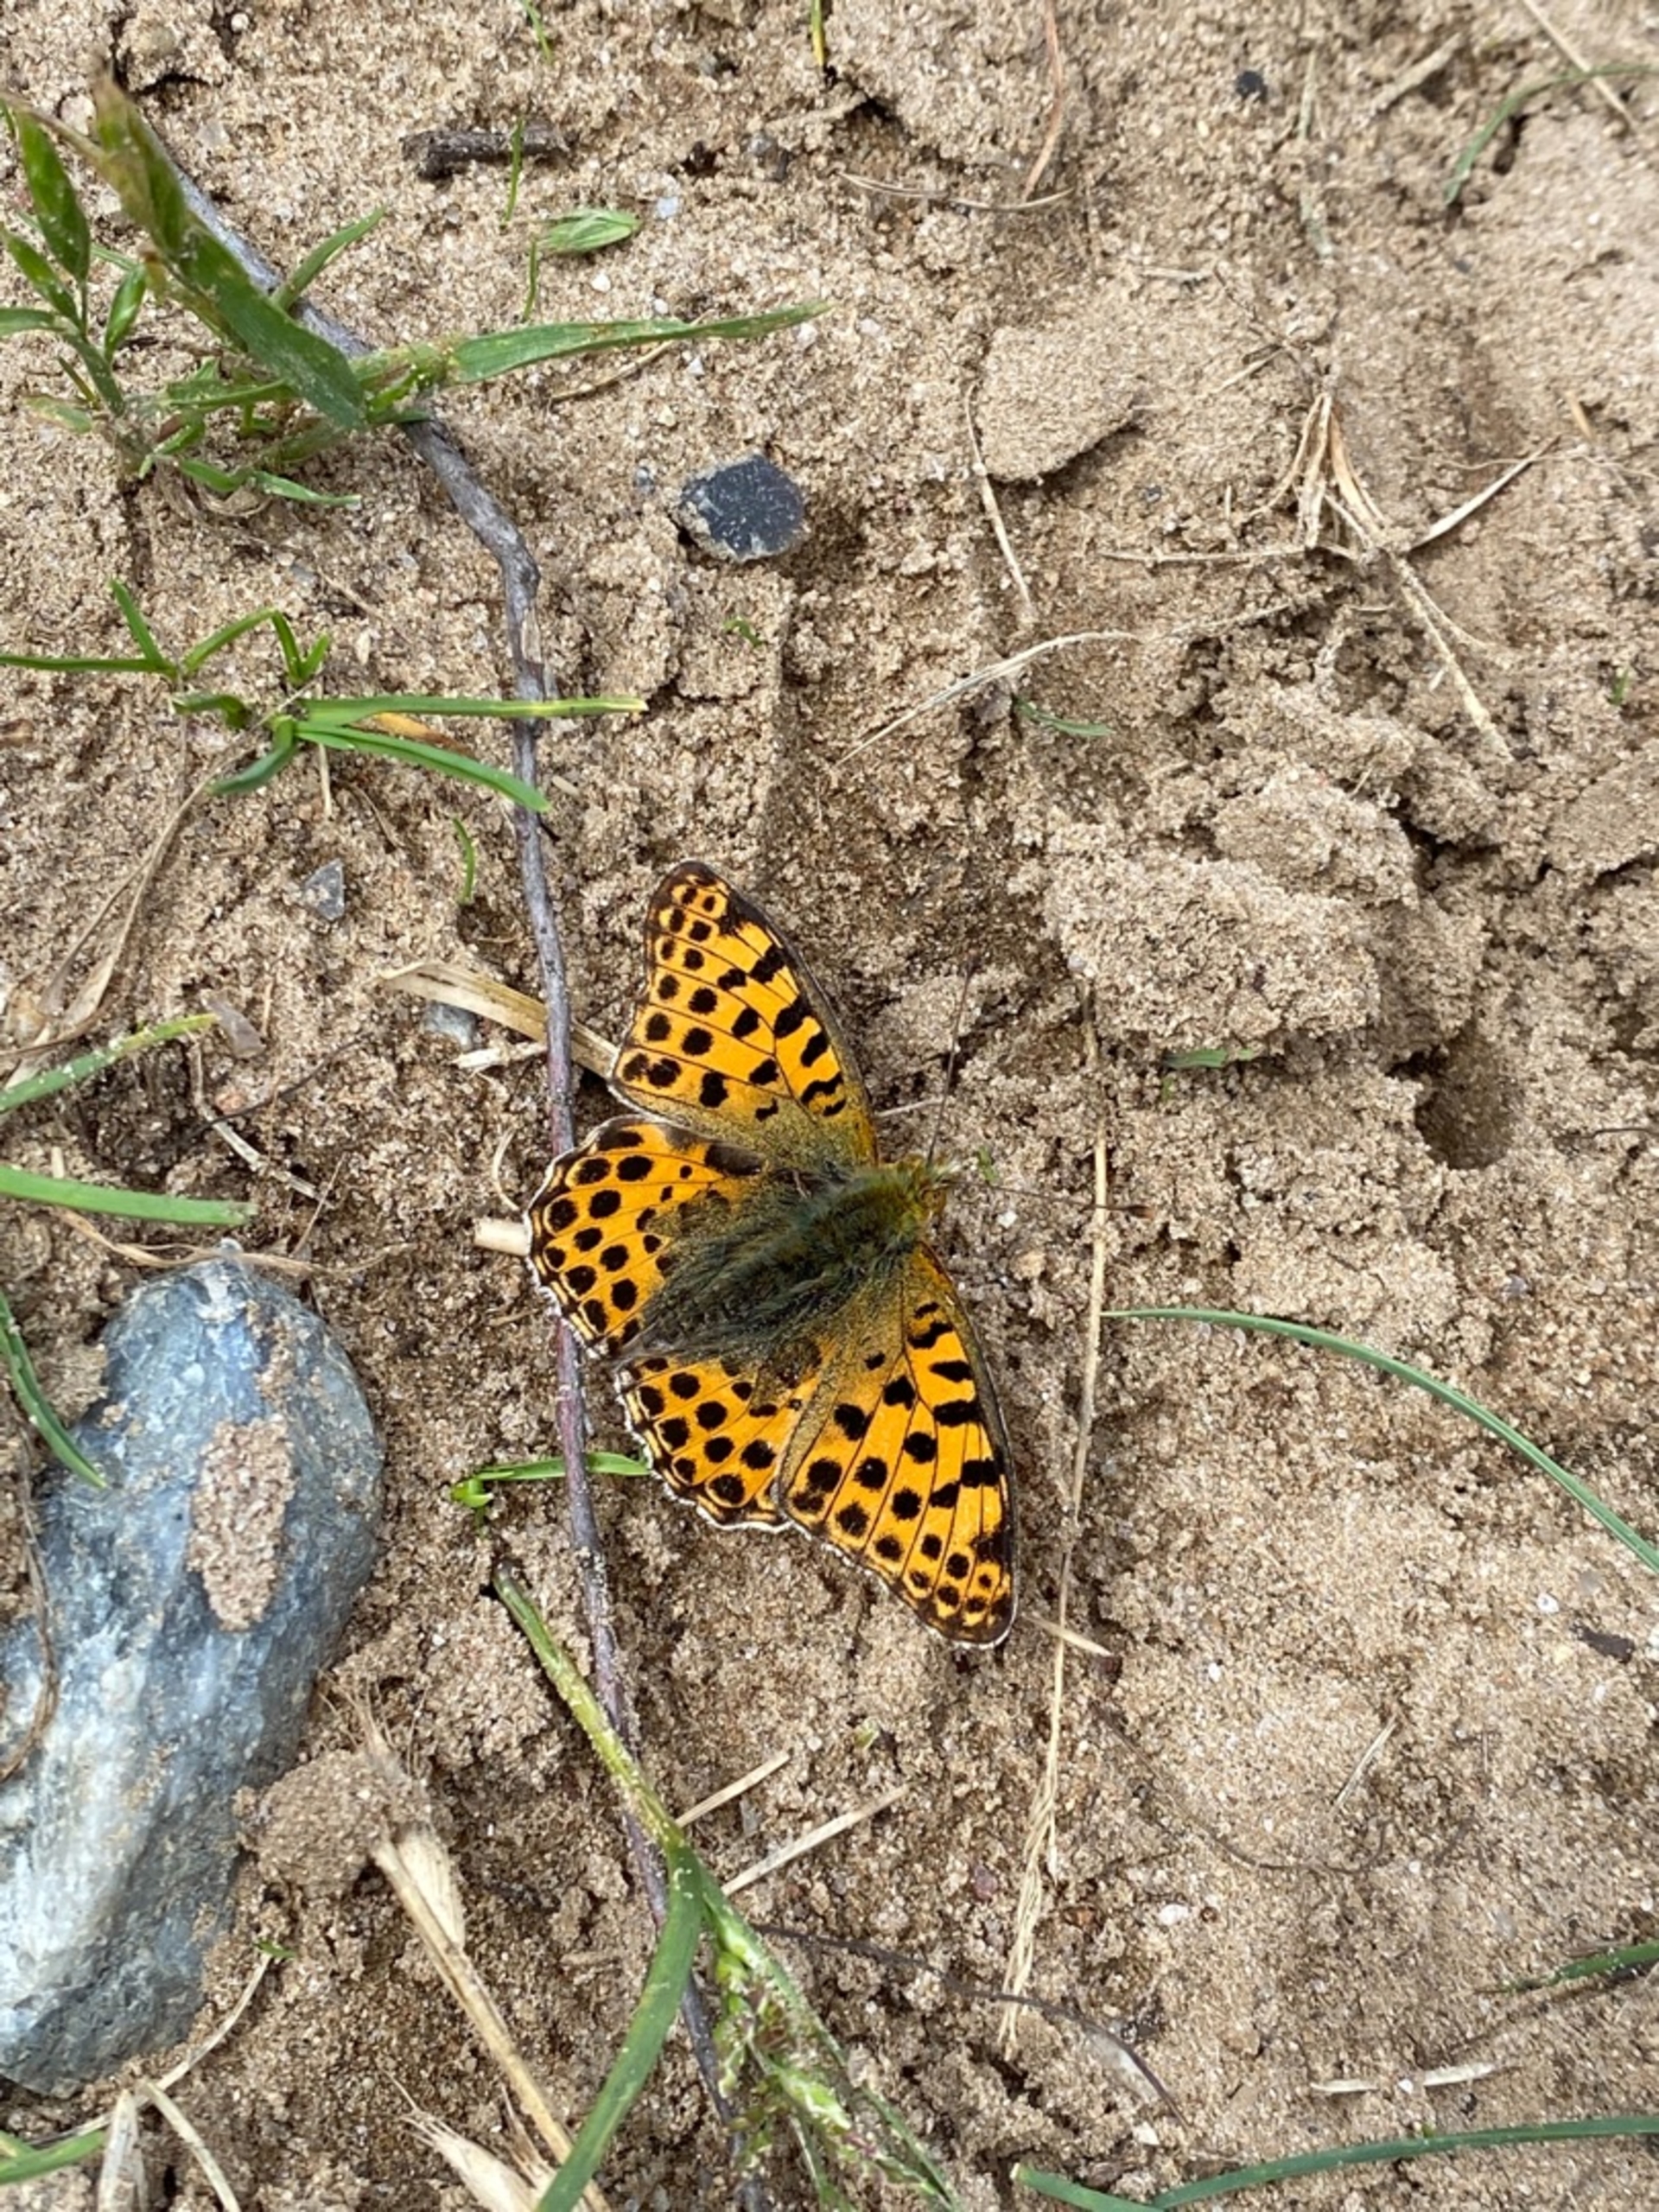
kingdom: Animalia
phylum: Arthropoda
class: Insecta
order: Lepidoptera
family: Nymphalidae
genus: Issoria
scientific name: Issoria lathonia
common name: Storplettet perlemorsommerfugl
